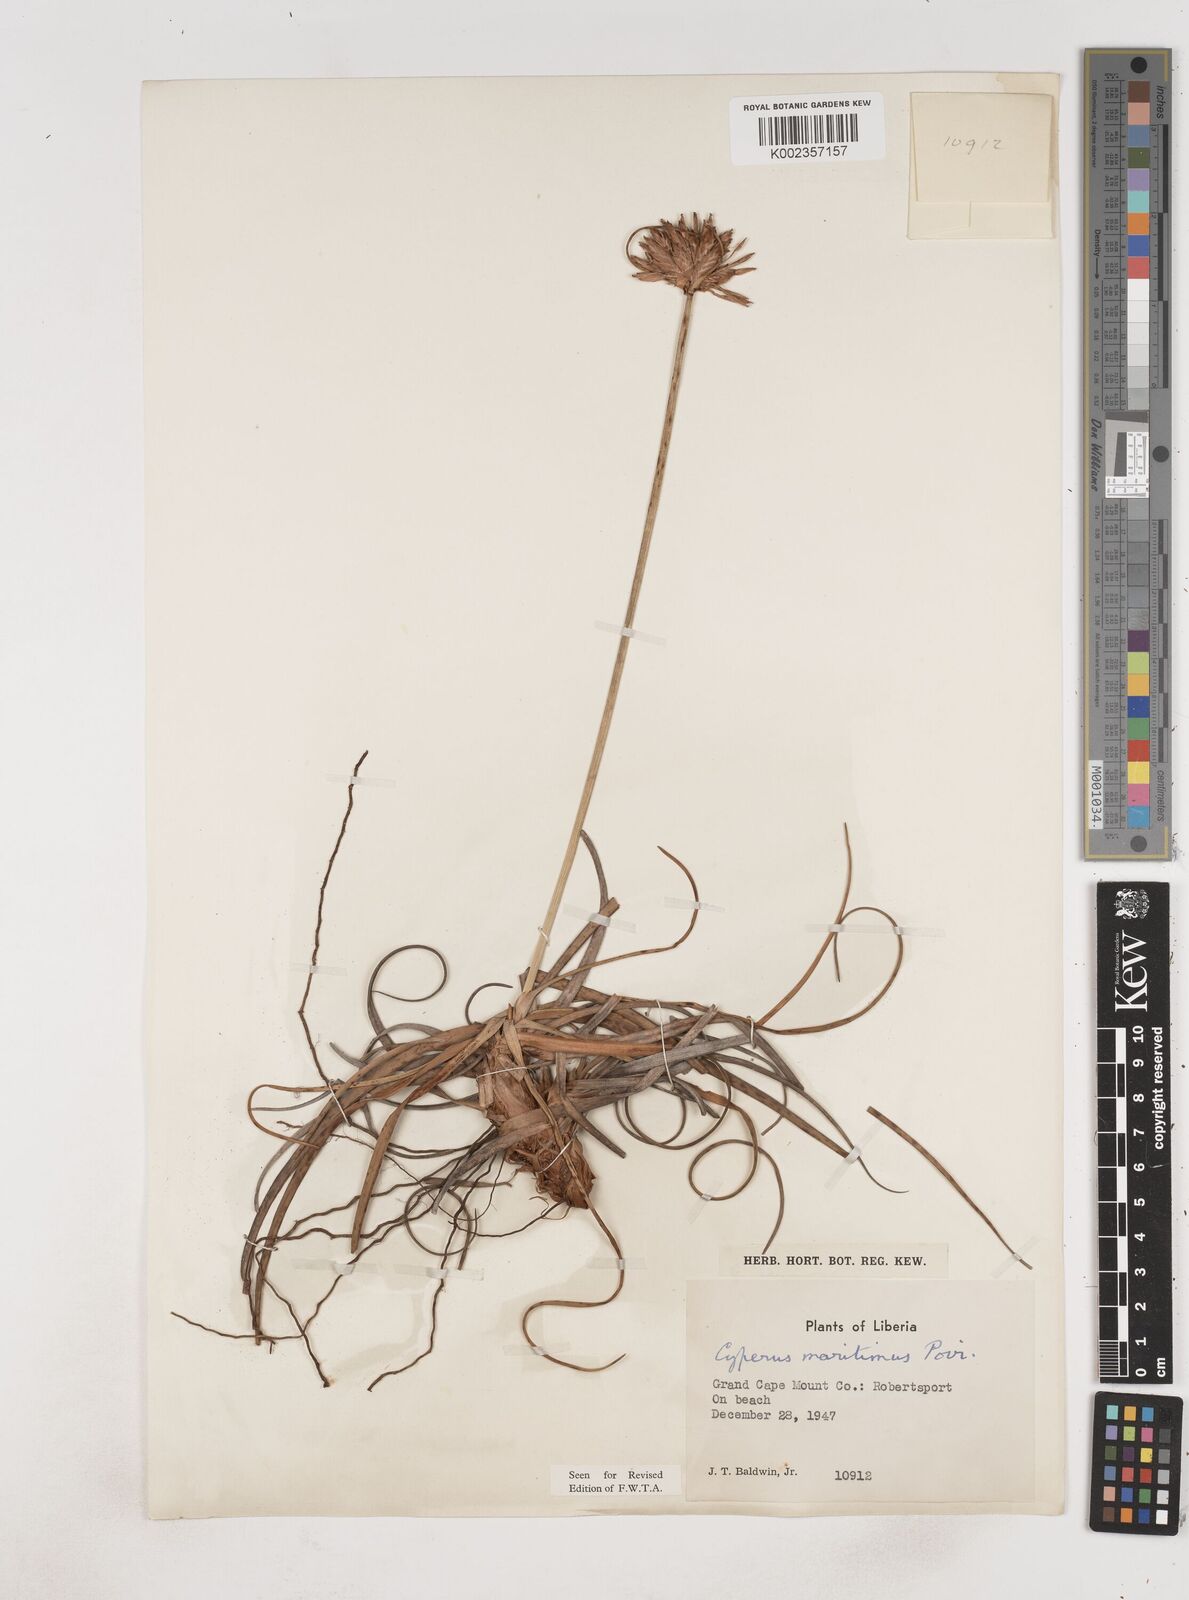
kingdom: Plantae
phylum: Tracheophyta
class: Liliopsida
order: Poales
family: Cyperaceae
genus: Cyperus
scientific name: Cyperus crassipes
